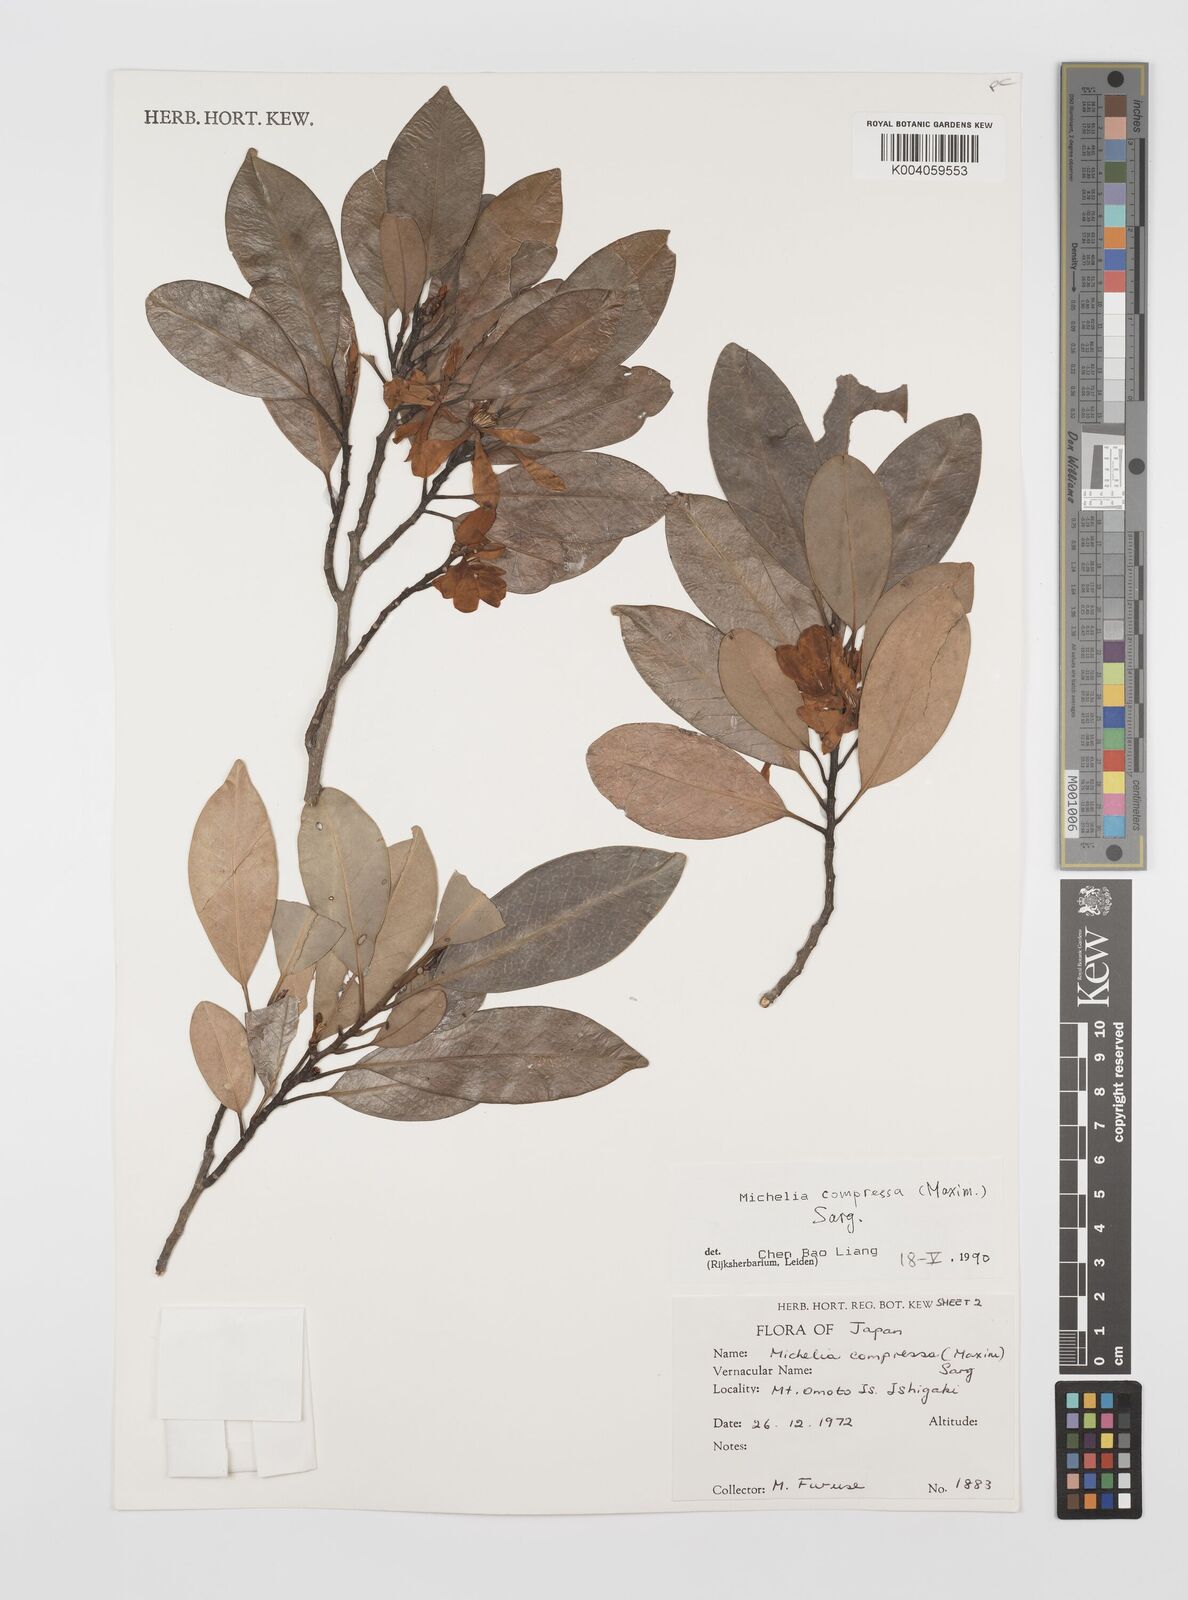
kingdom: Plantae
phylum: Tracheophyta
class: Magnoliopsida
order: Magnoliales
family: Magnoliaceae
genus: Magnolia
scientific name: Magnolia compressa
